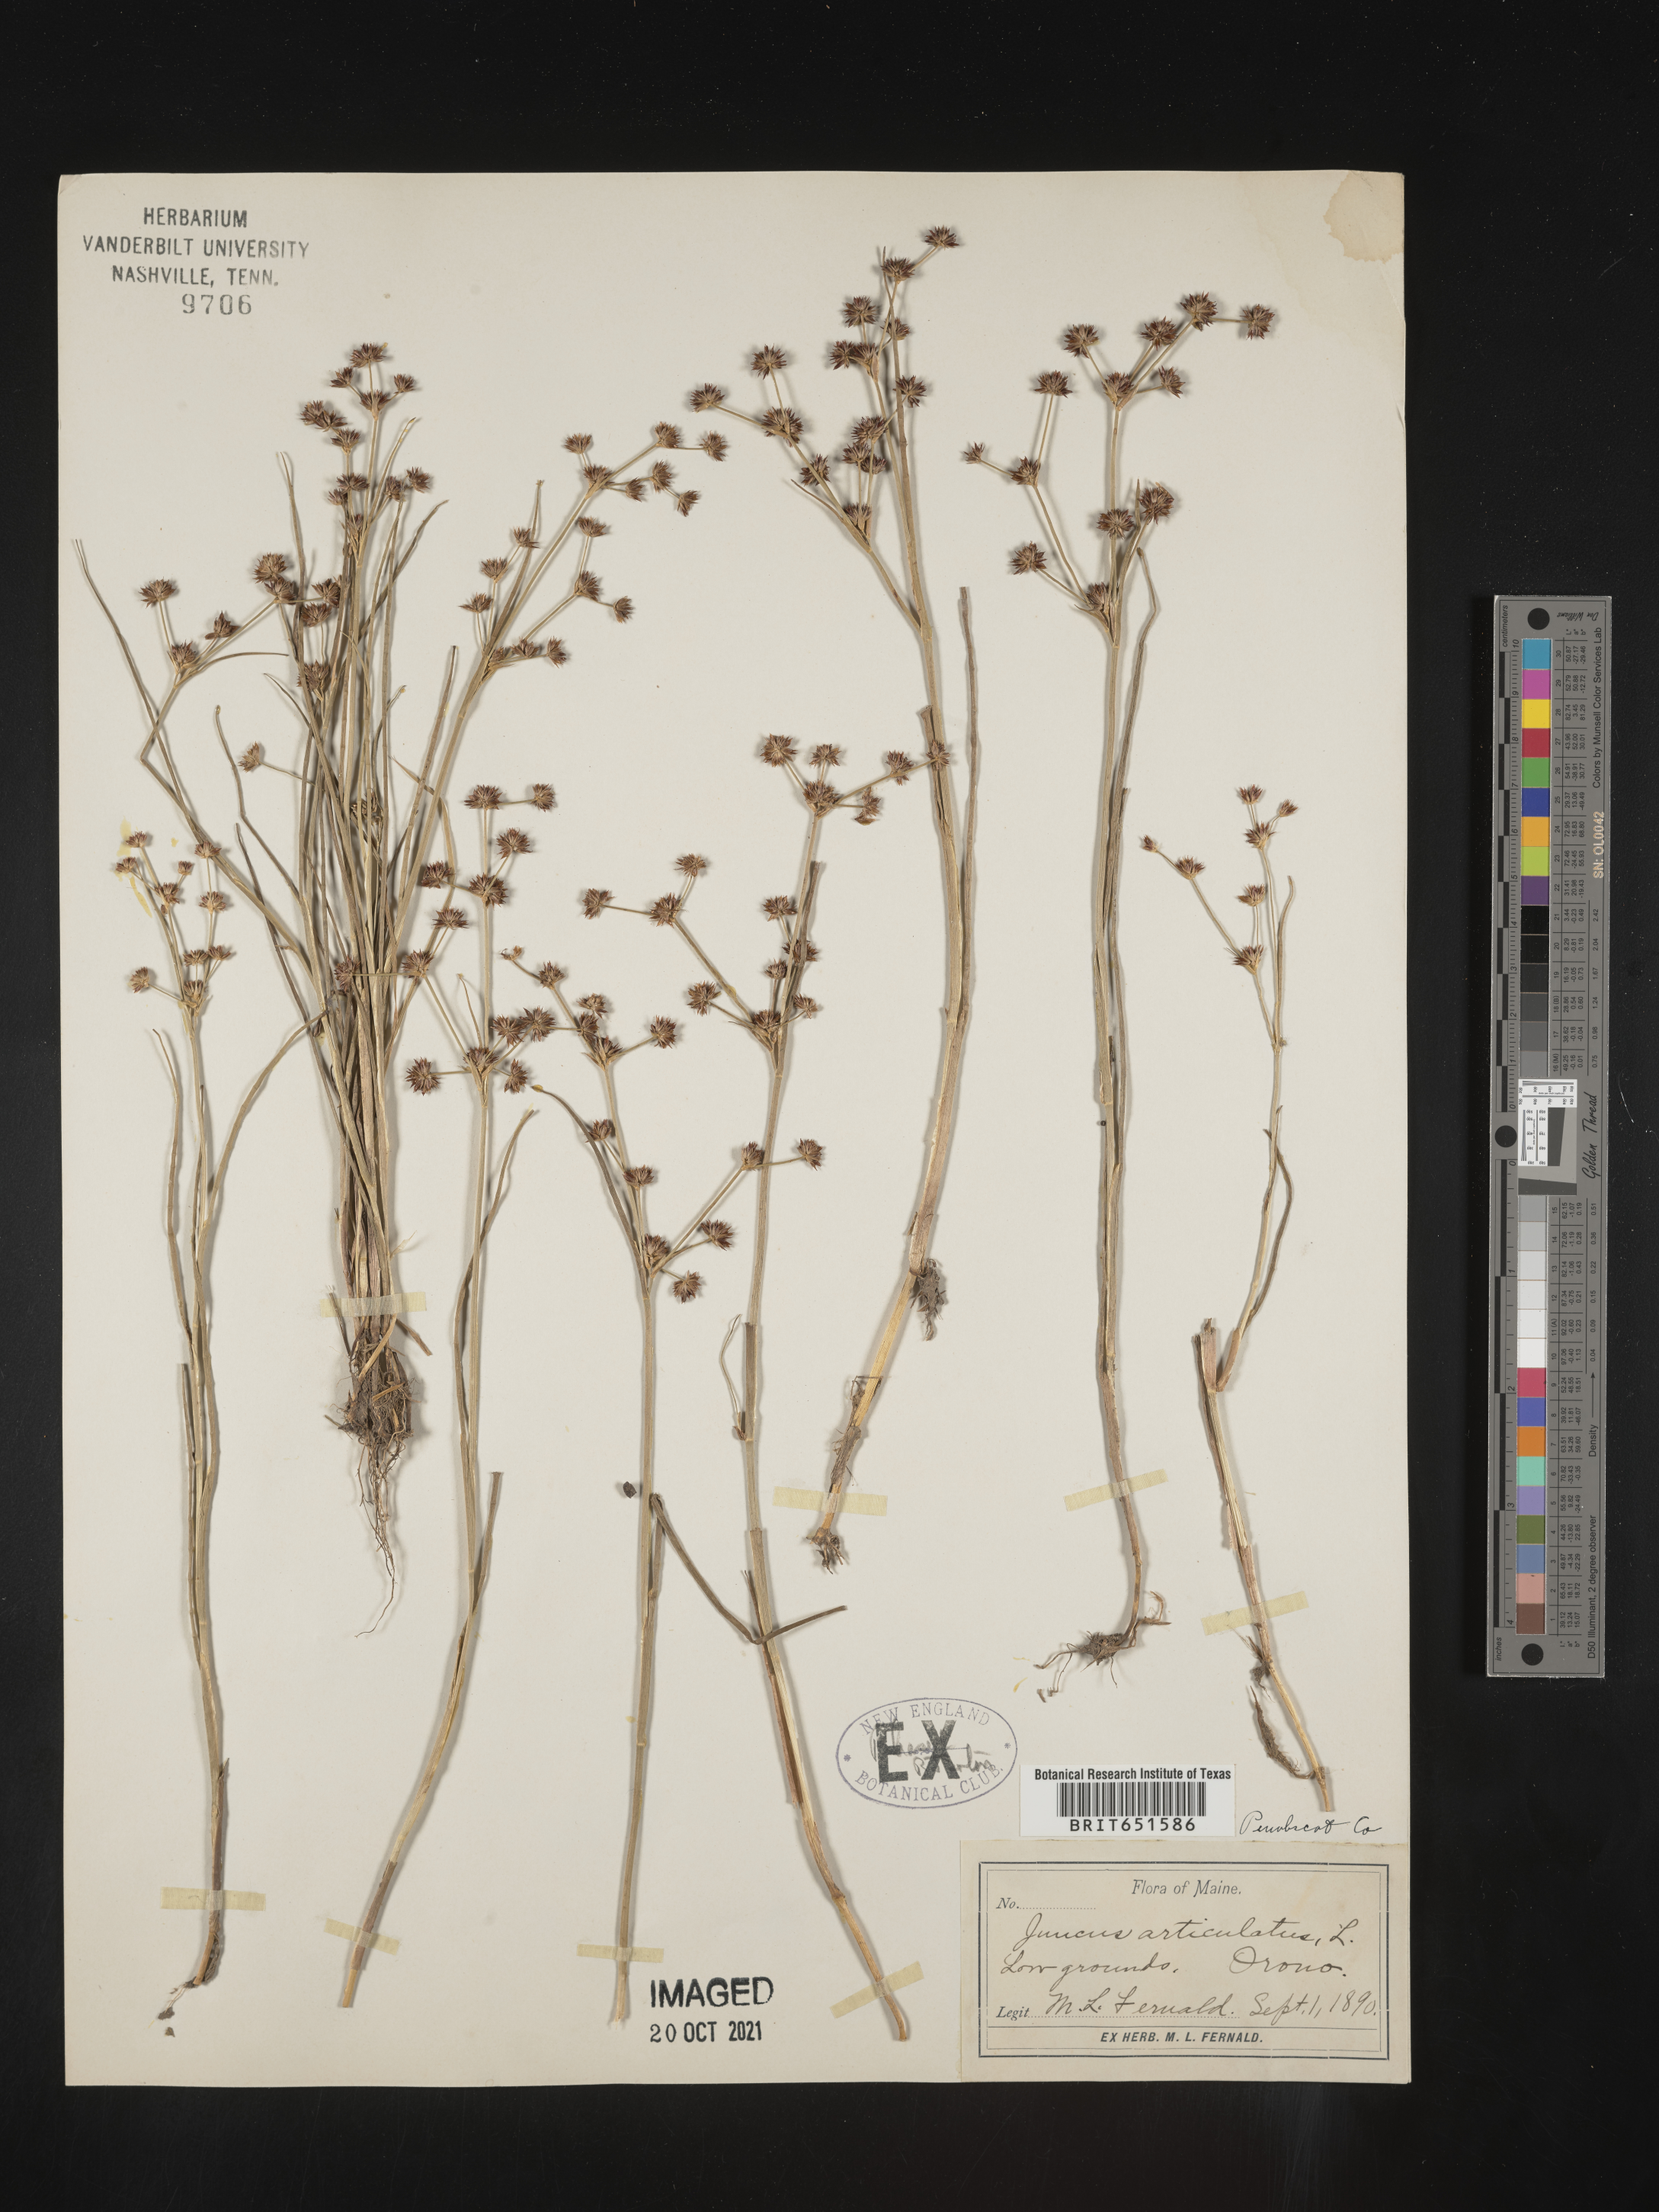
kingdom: Plantae
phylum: Tracheophyta
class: Liliopsida
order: Poales
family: Juncaceae
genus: Juncus
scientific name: Juncus articulatus
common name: Jointed rush
